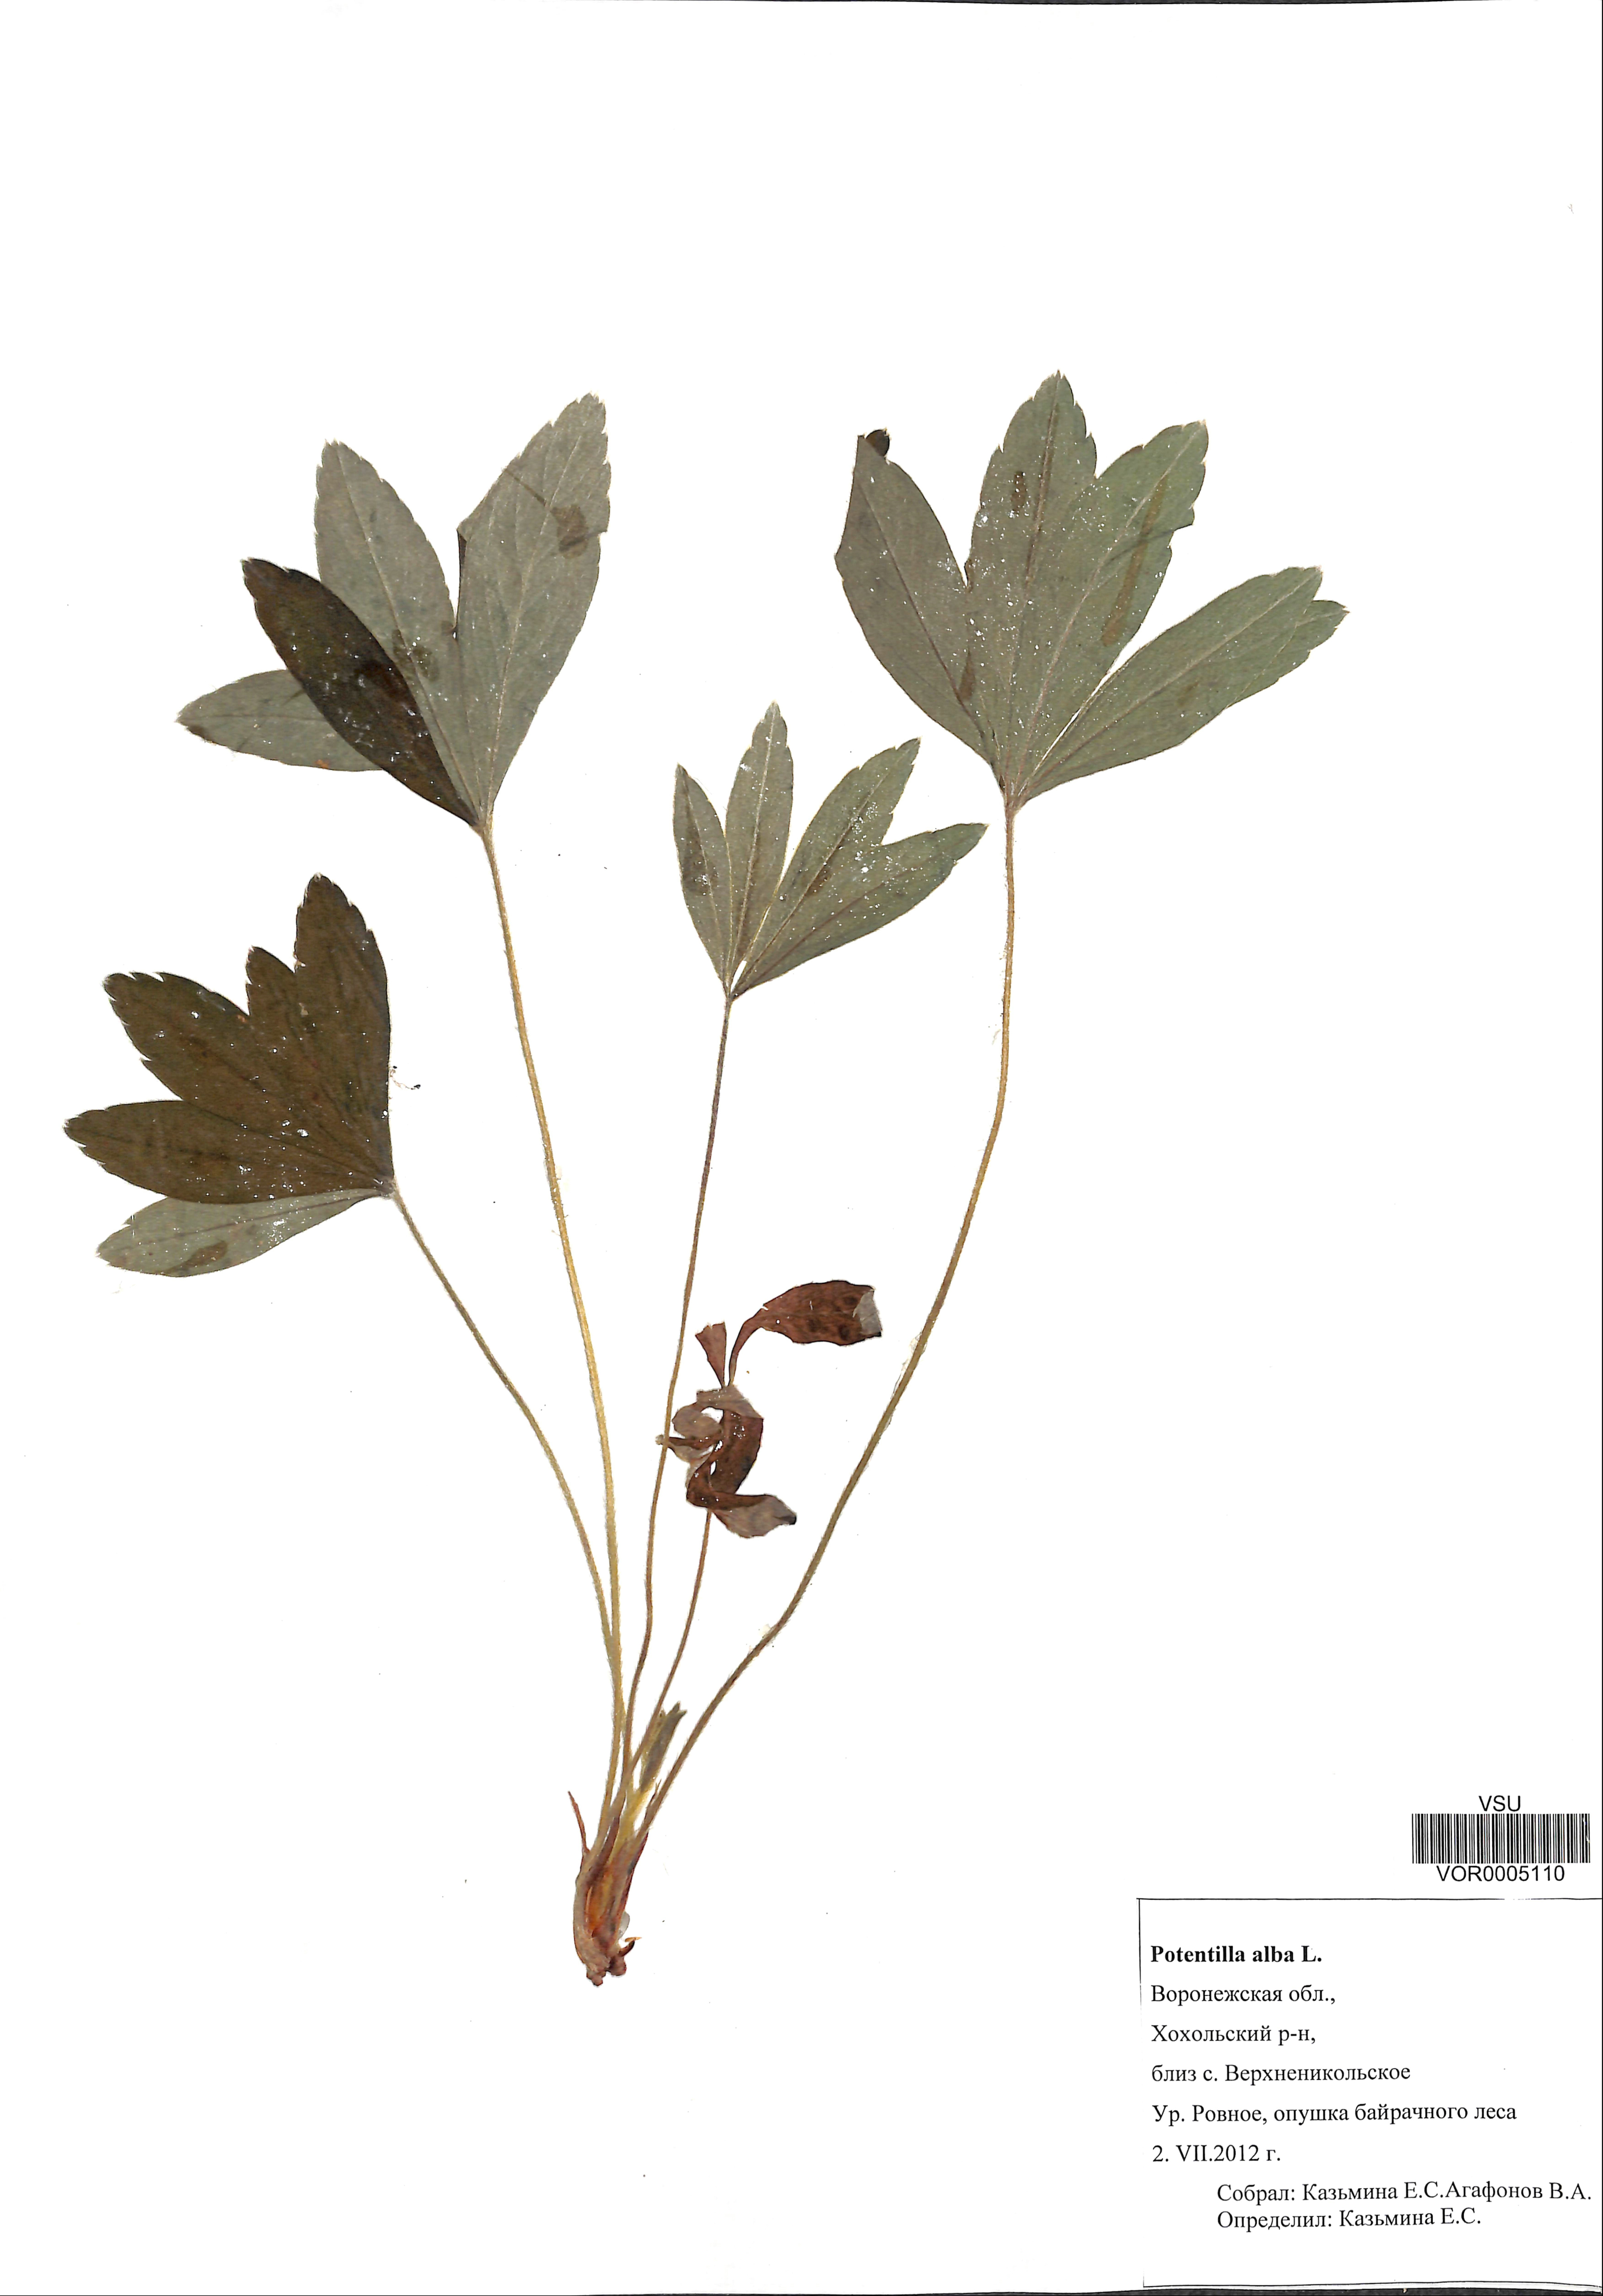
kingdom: Plantae
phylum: Tracheophyta
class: Magnoliopsida
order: Rosales
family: Rosaceae
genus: Potentilla
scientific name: Potentilla alba
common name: White cinquefoil
